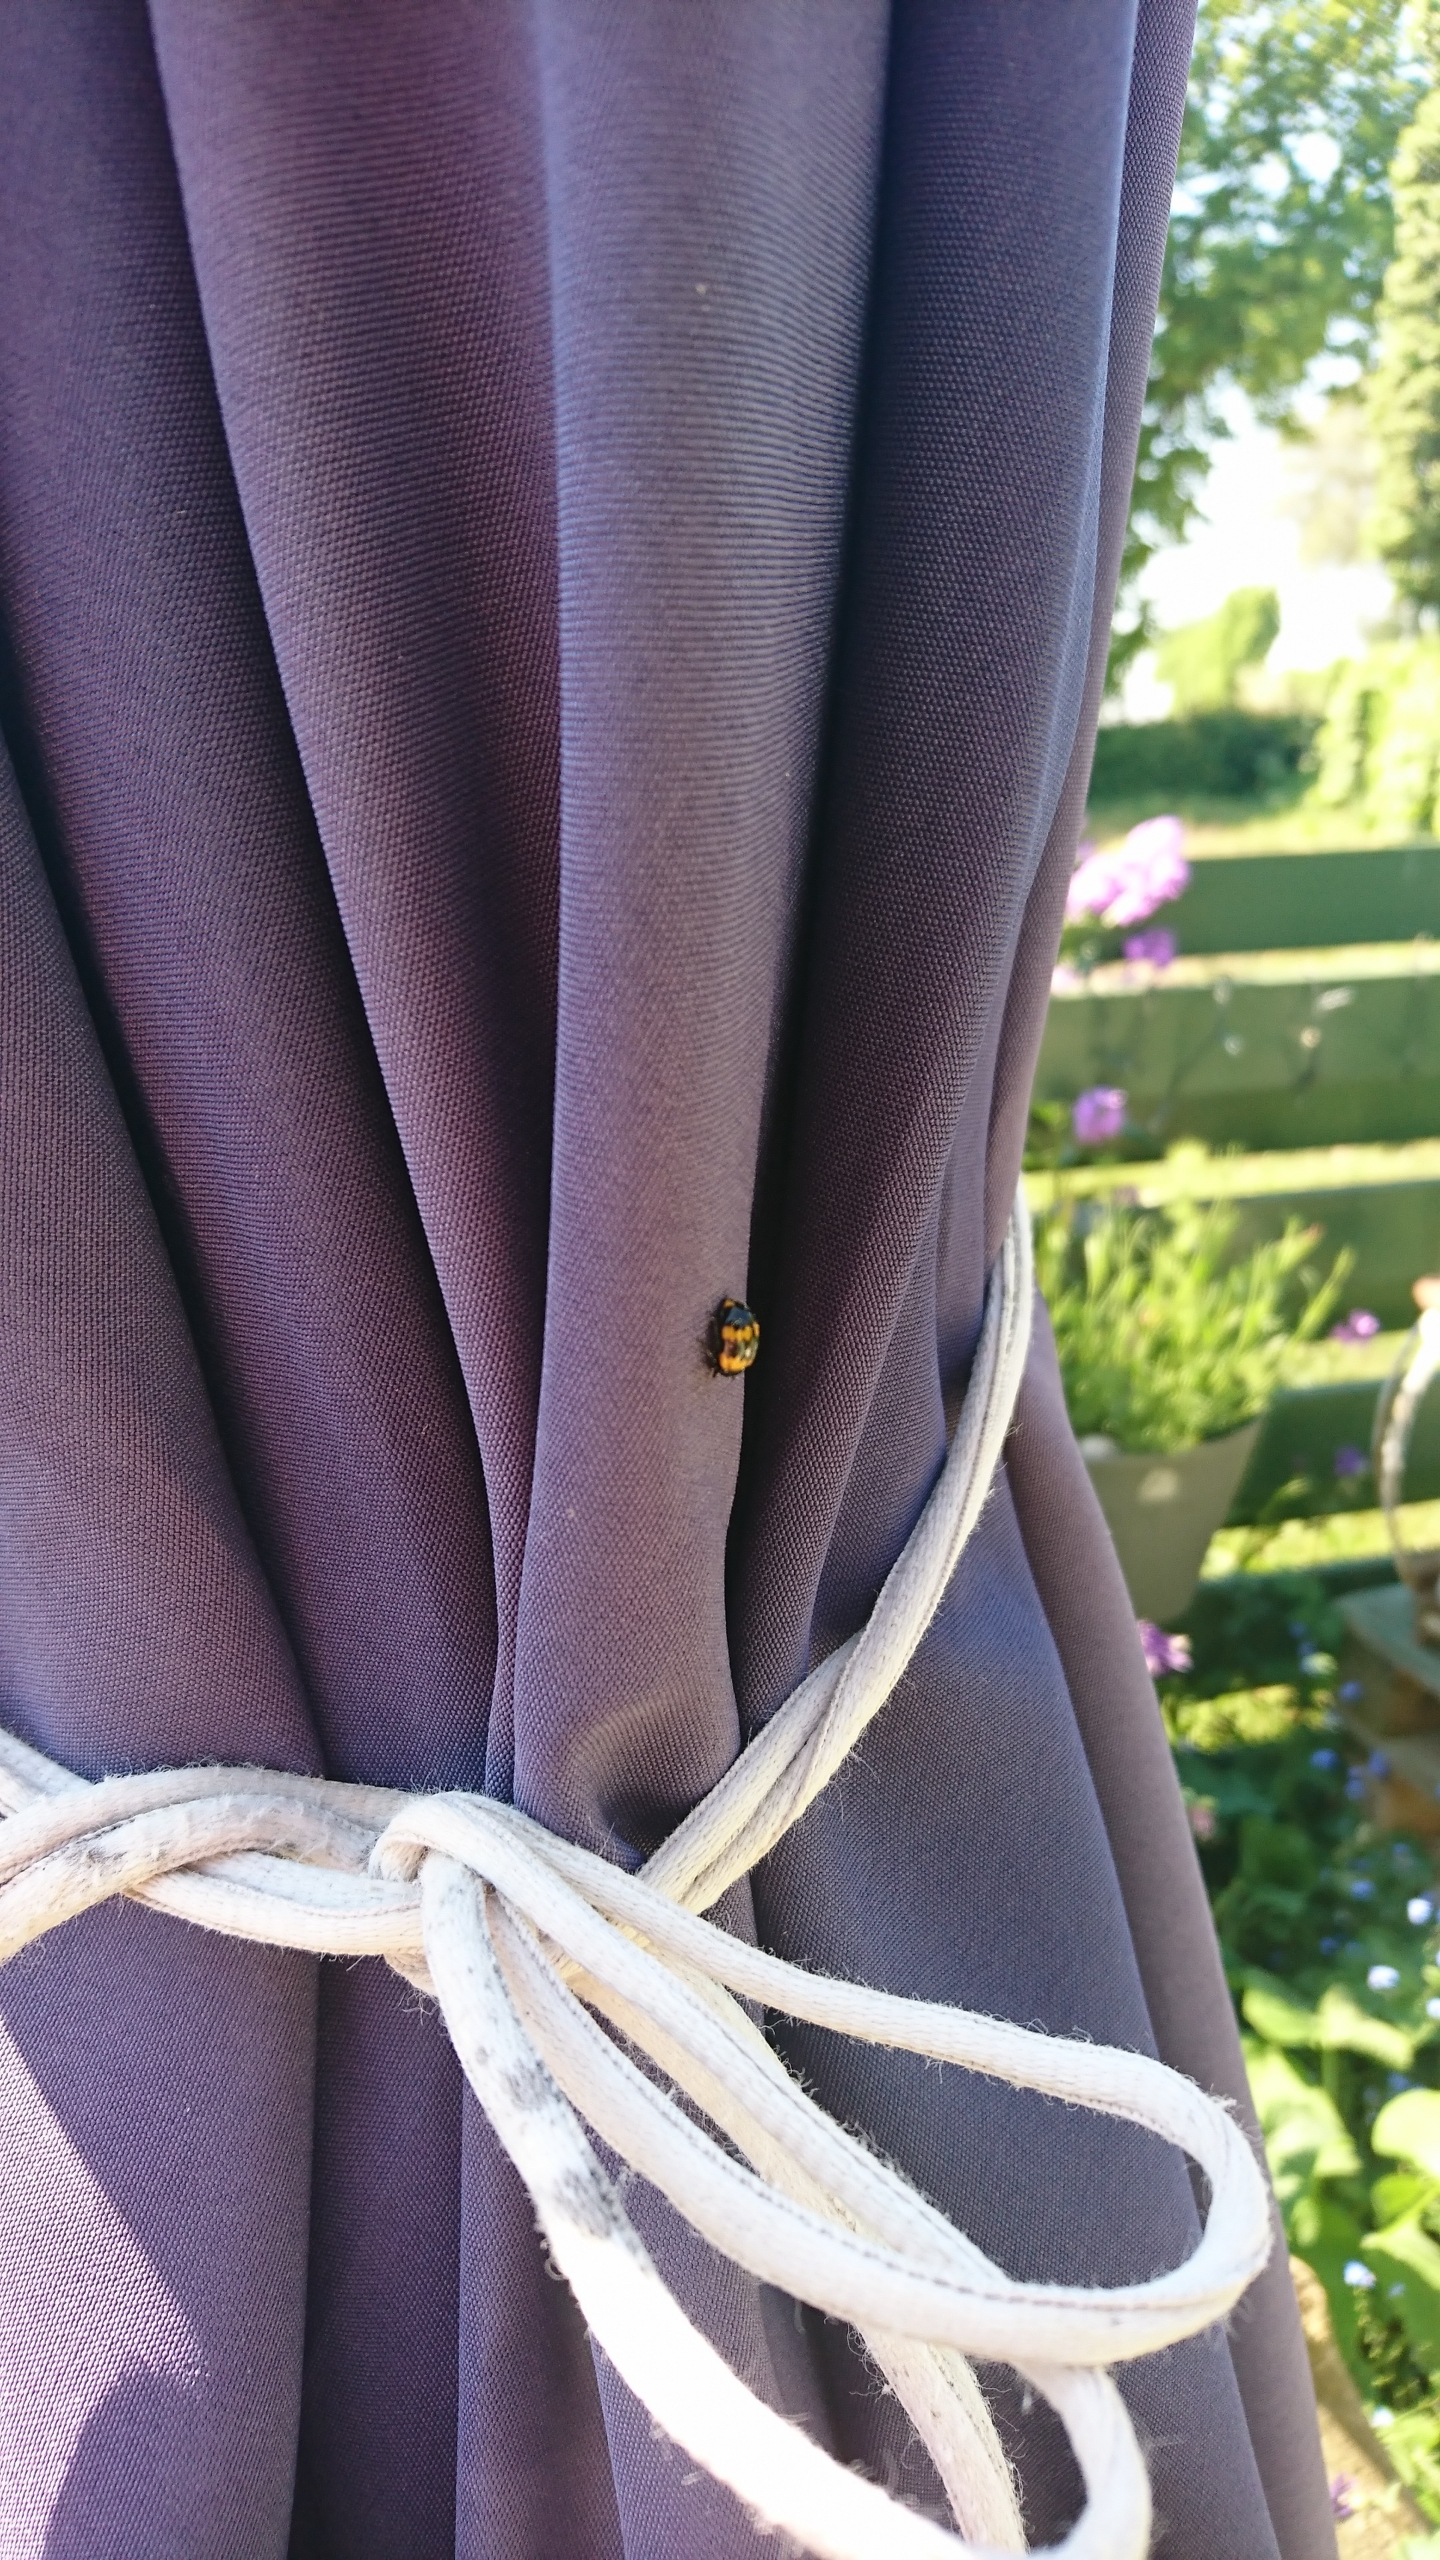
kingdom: Animalia
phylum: Arthropoda
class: Insecta
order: Coleoptera
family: Tenebrionidae
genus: Diaperis
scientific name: Diaperis boleti
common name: Tigerskyggebille
